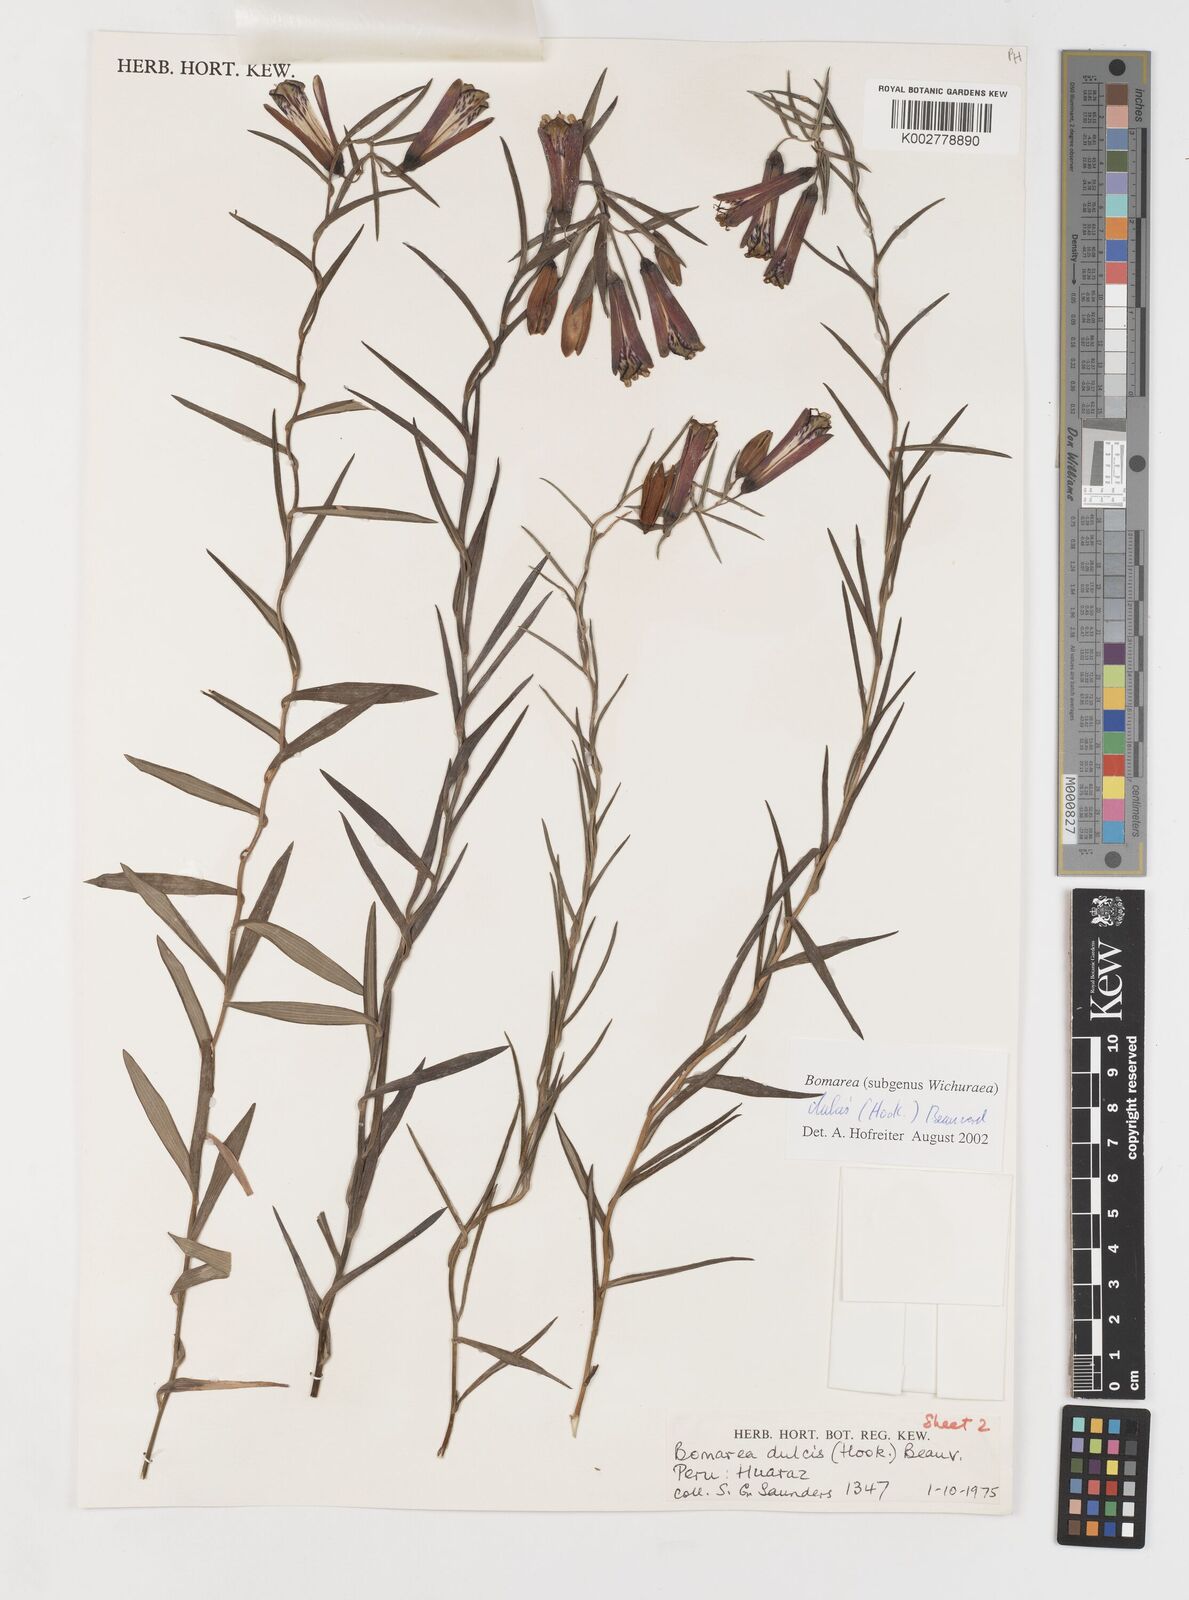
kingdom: Plantae
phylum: Tracheophyta
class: Liliopsida
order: Liliales
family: Alstroemeriaceae
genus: Bomarea
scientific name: Bomarea dulcis
